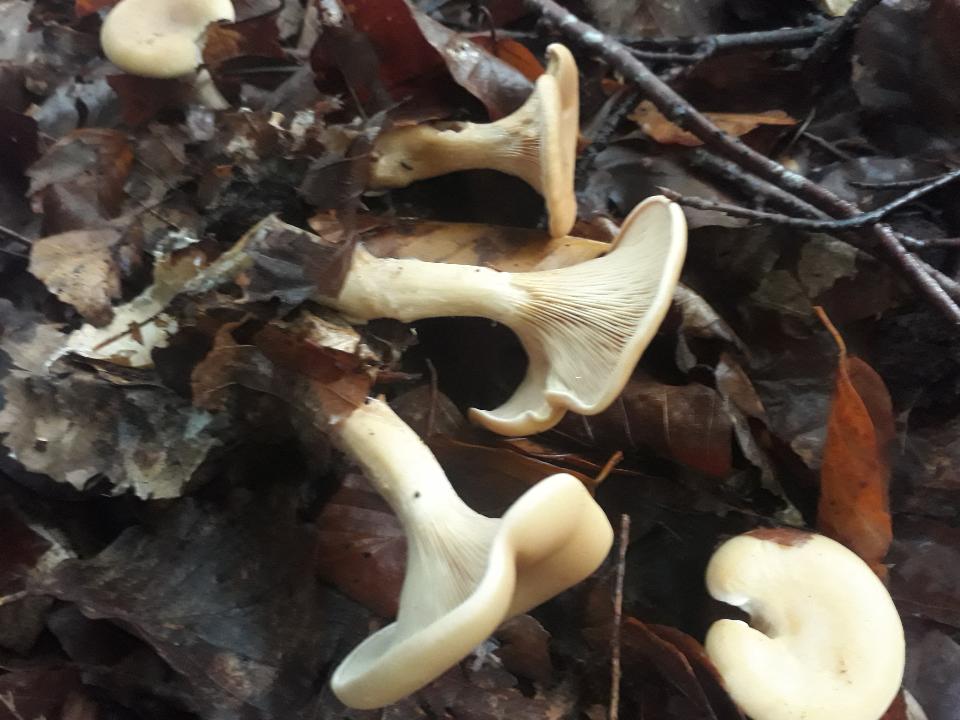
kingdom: Fungi
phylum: Basidiomycota
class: Agaricomycetes
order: Agaricales
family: Tricholomataceae
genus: Infundibulicybe
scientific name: Infundibulicybe gibba
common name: almindelig tragthat
